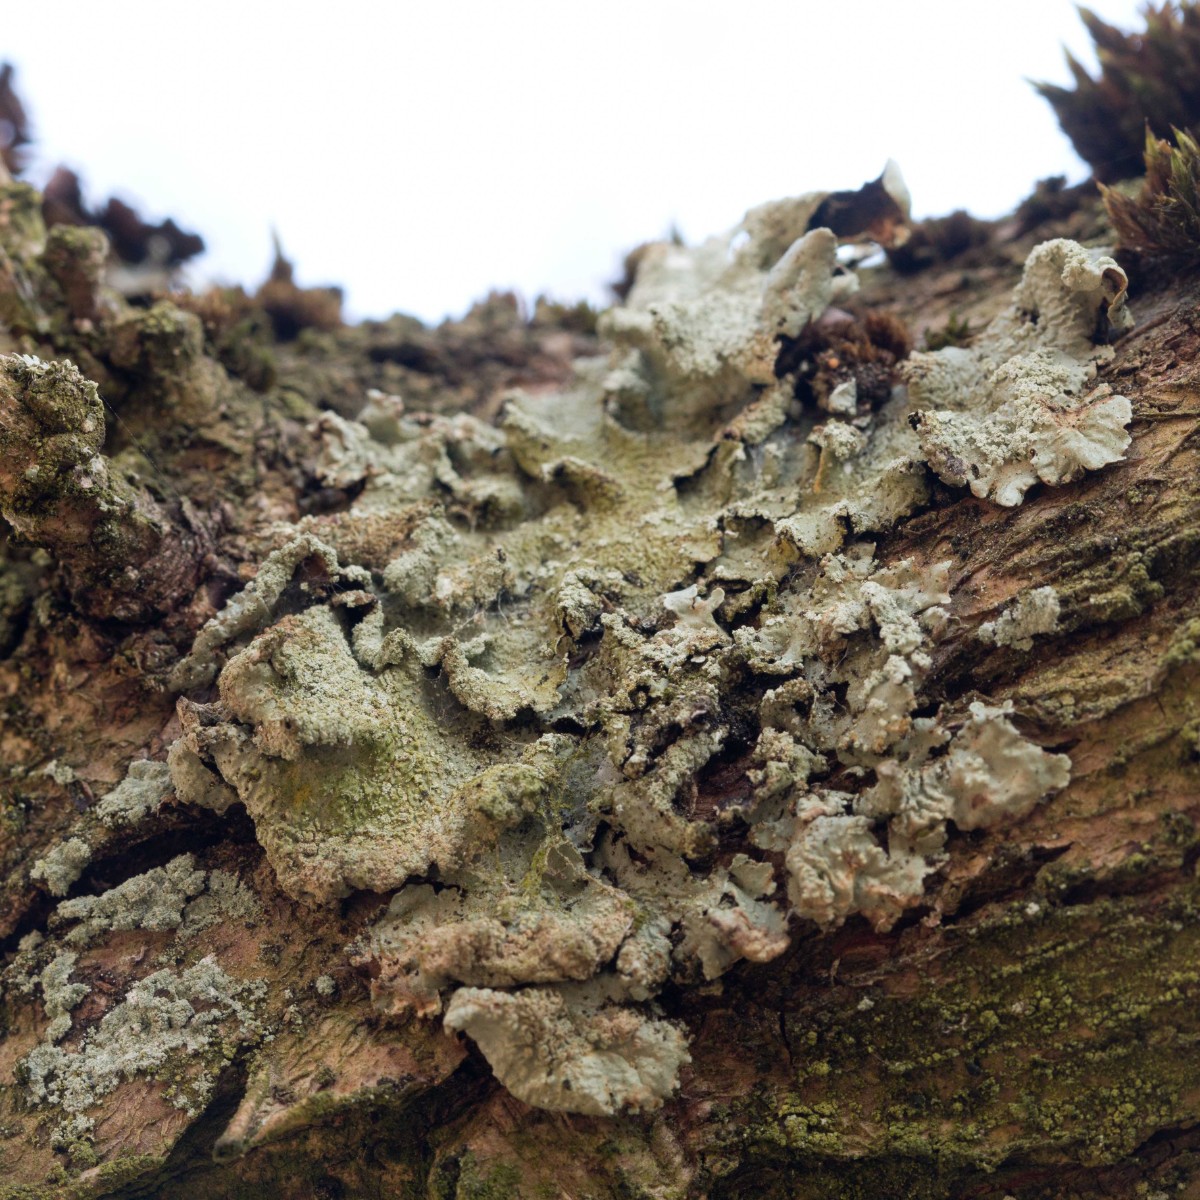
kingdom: Fungi
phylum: Ascomycota
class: Lecanoromycetes
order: Lecanorales
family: Parmeliaceae
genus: Flavoparmelia
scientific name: Flavoparmelia caperata
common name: gulgrøn skållav
